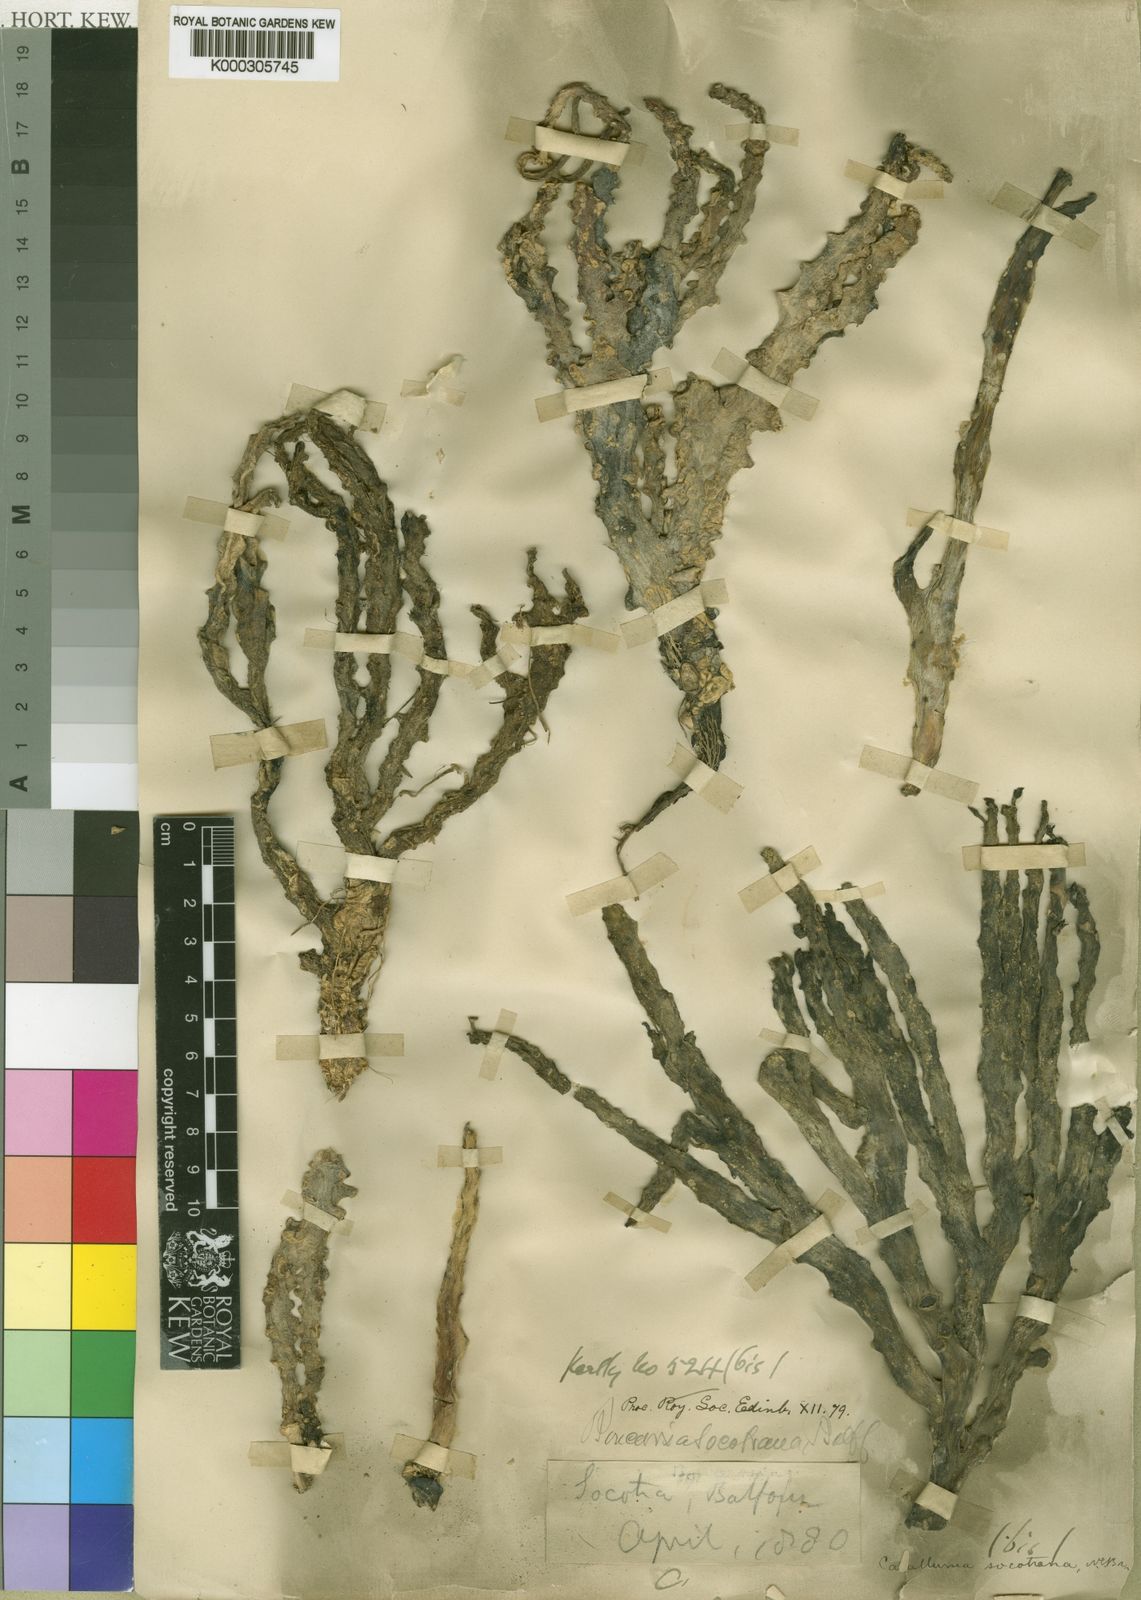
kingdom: Plantae
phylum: Tracheophyta
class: Magnoliopsida
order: Gentianales
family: Apocynaceae
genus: Ceropegia
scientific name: Ceropegia socotrana
